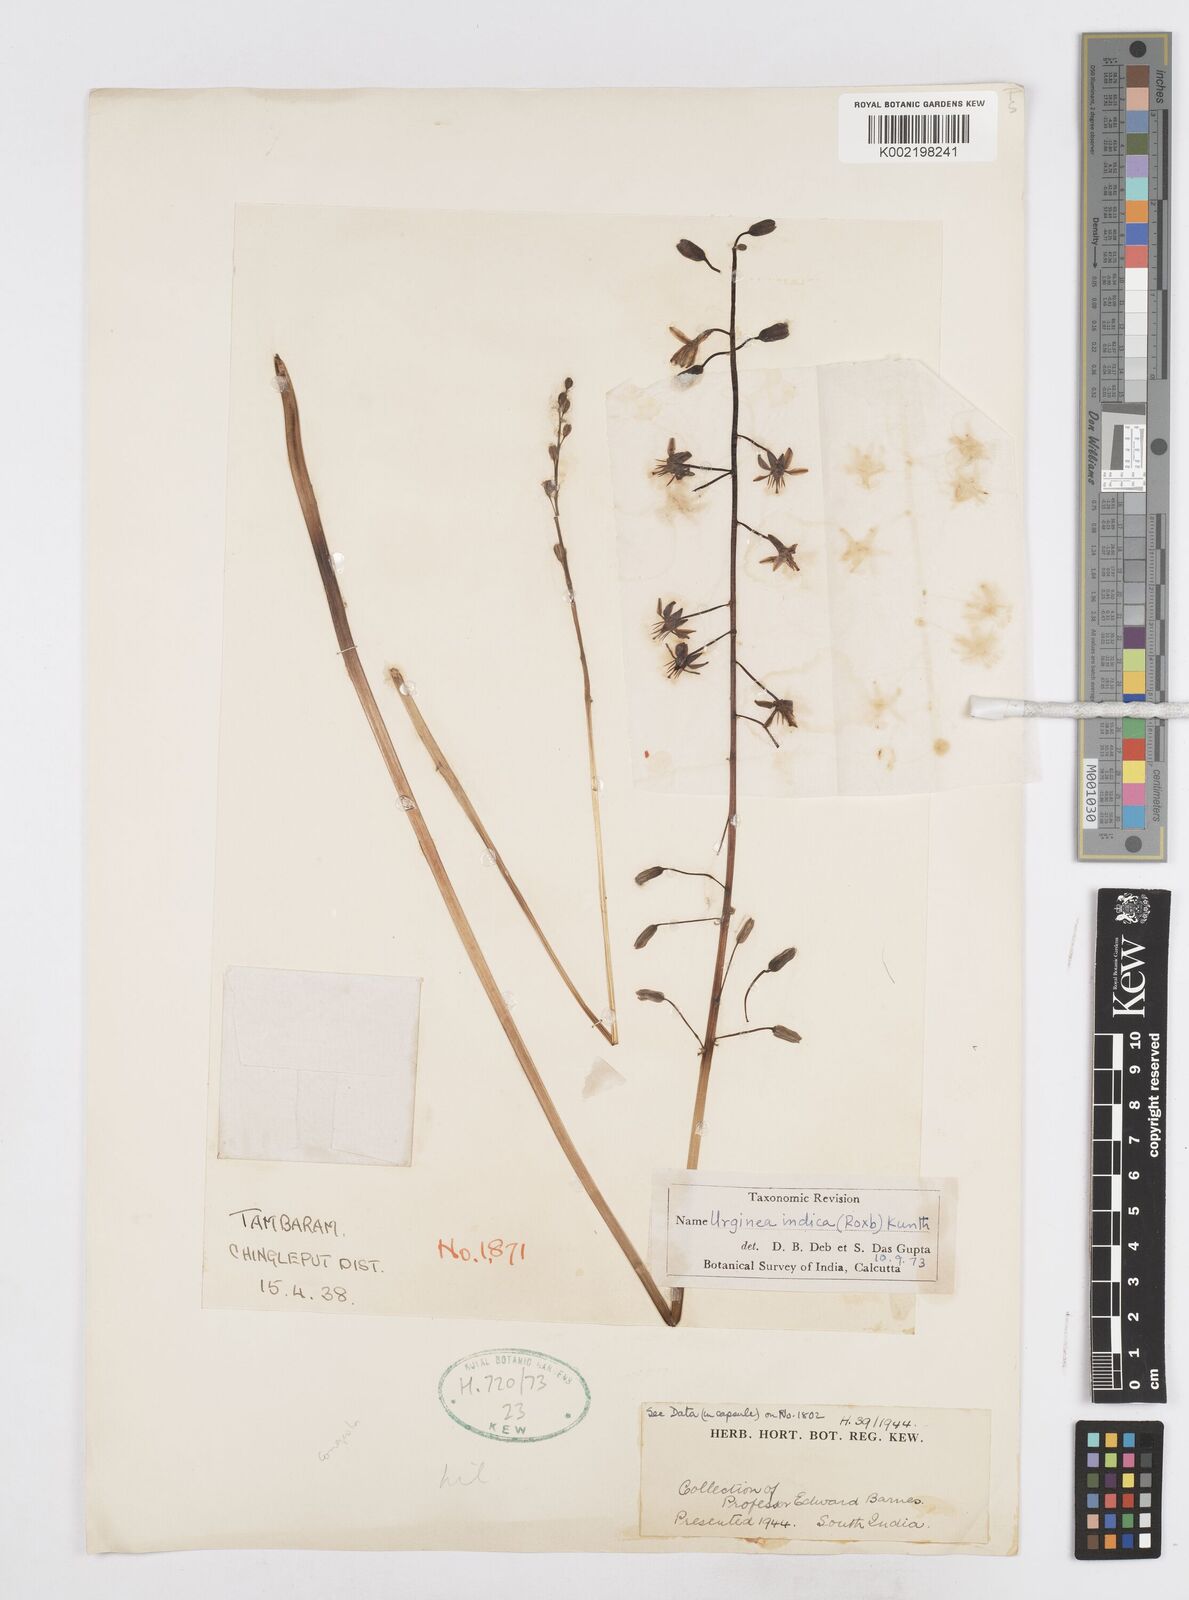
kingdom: Plantae
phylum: Tracheophyta
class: Liliopsida
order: Asparagales
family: Asparagaceae
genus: Drimia
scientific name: Drimia indica
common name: Indian-squill
